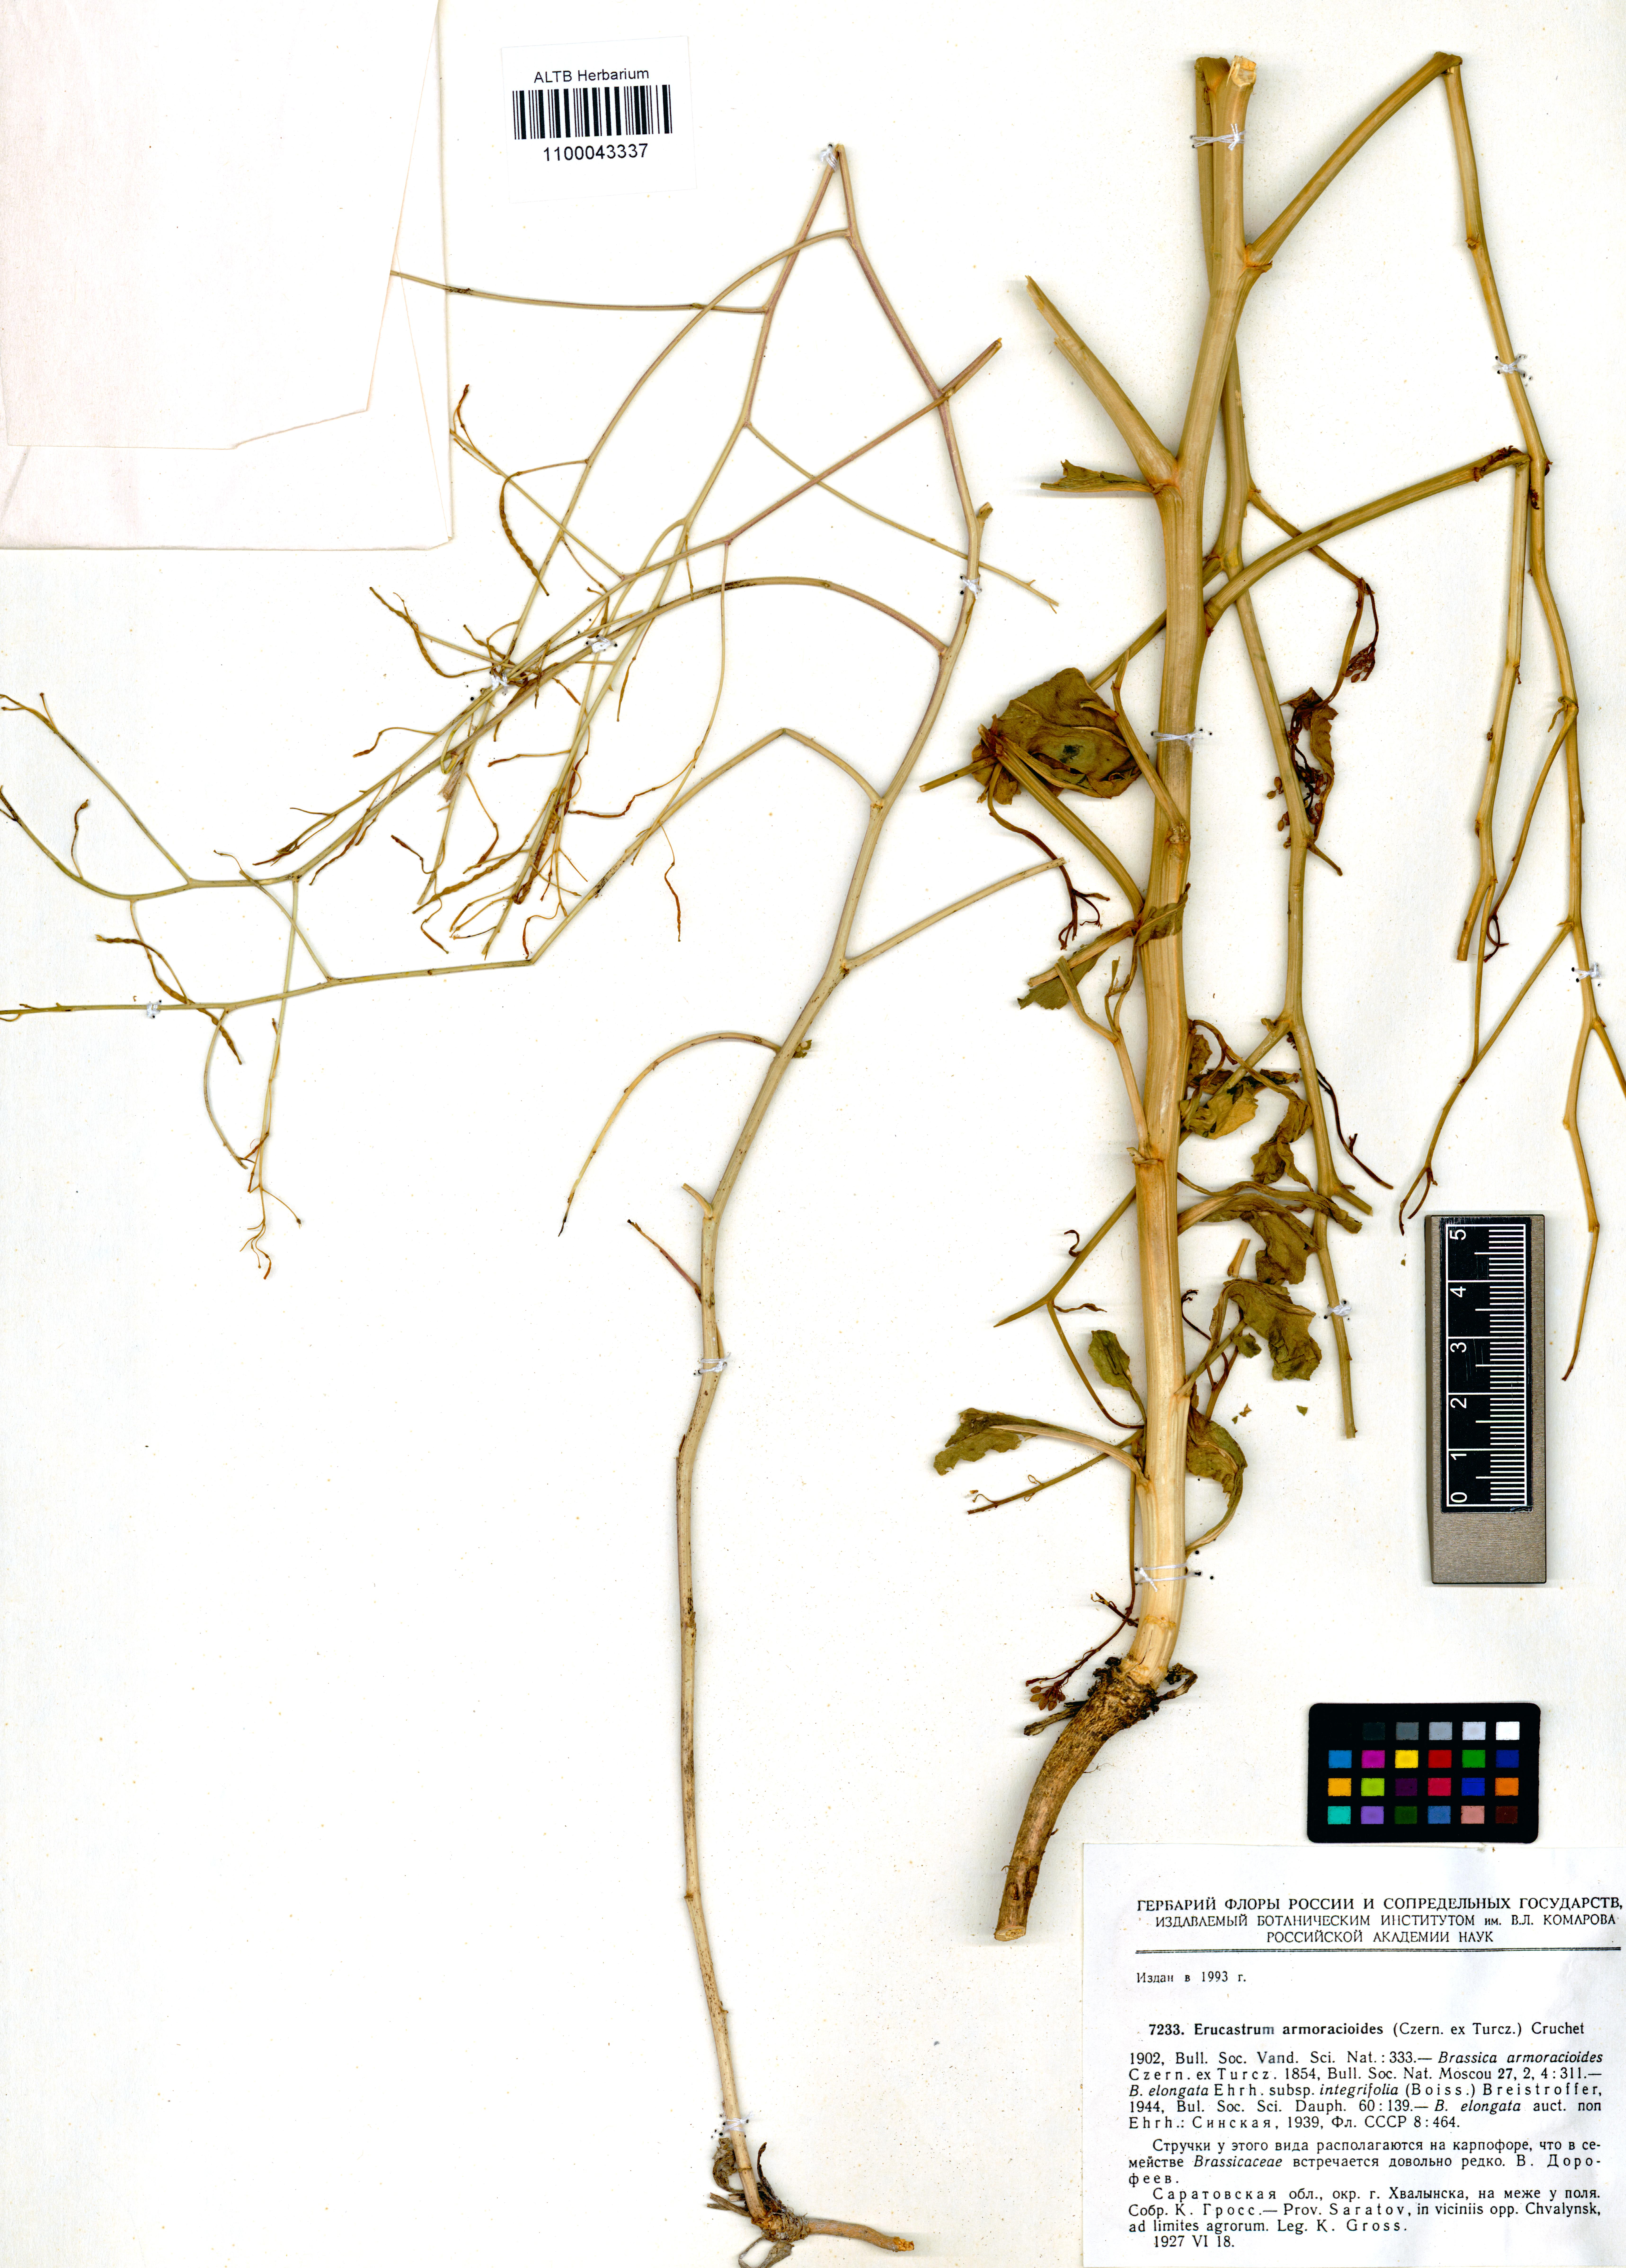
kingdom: Plantae
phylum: Tracheophyta
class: Magnoliopsida
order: Brassicales
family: Brassicaceae
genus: Brassica
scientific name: Brassica elongata
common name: Long-stalked rape
